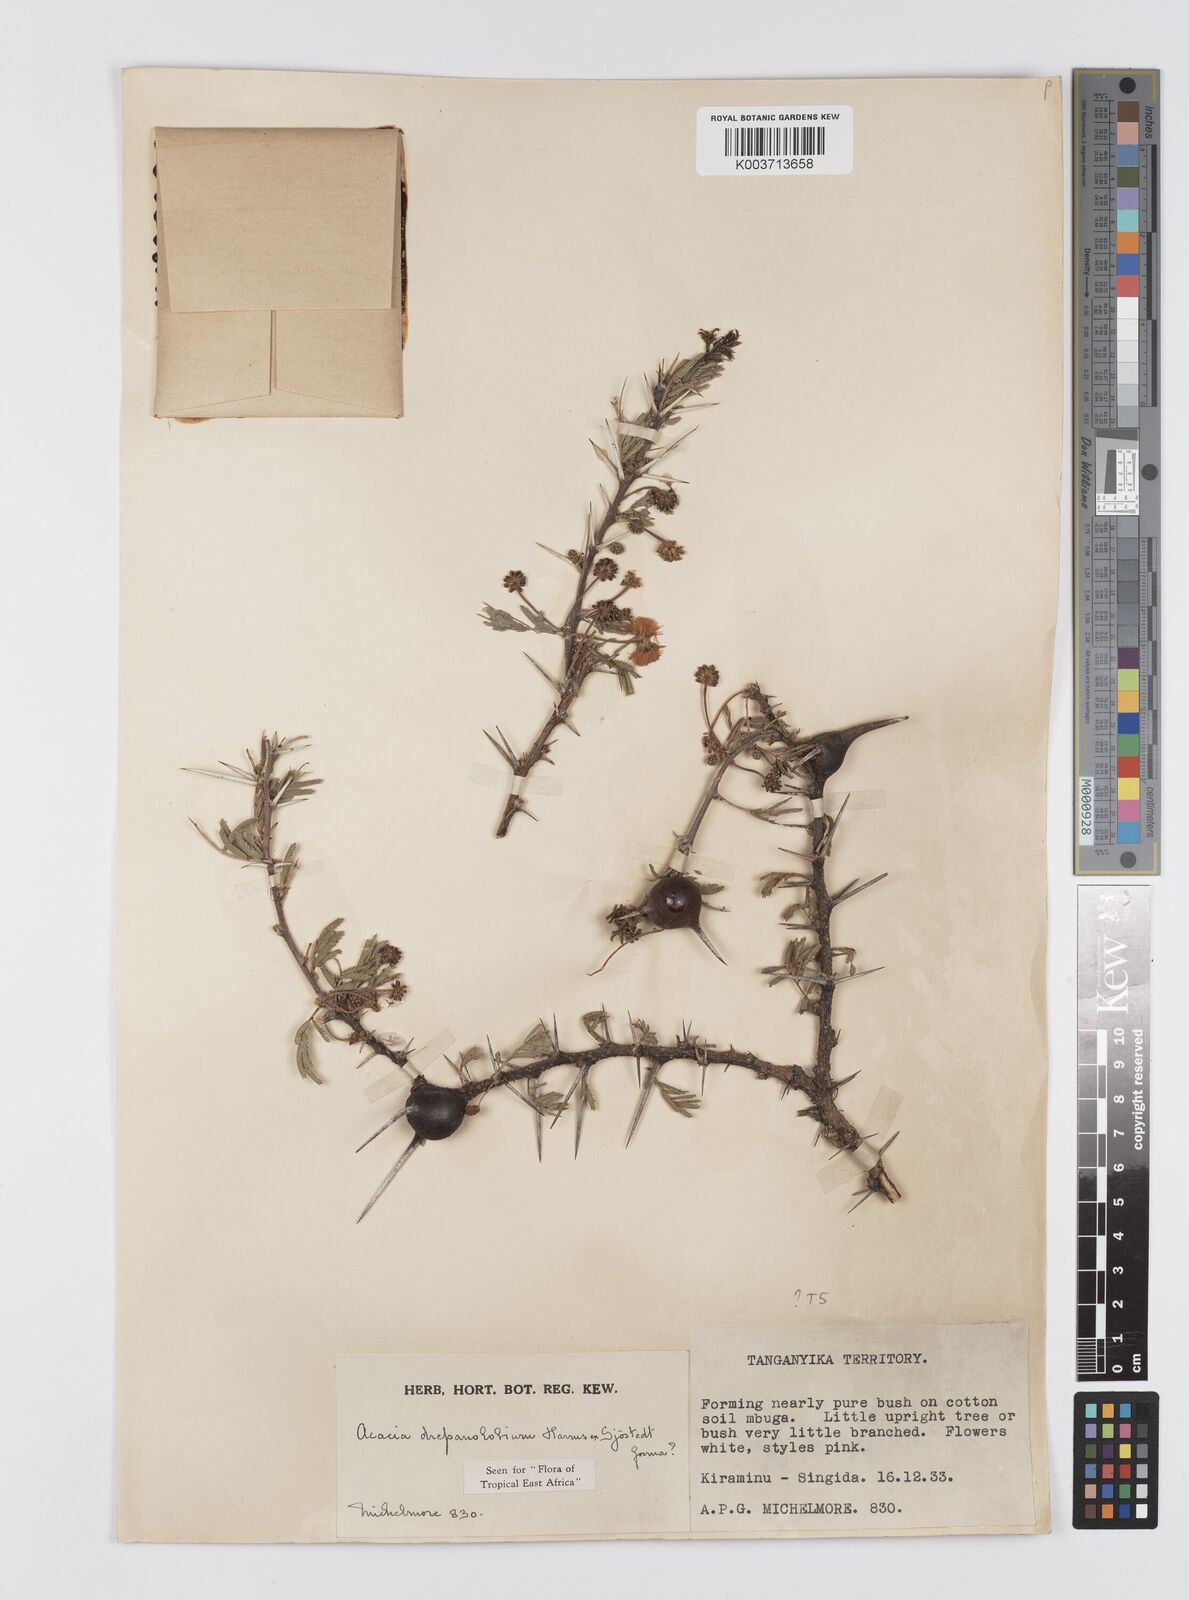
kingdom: Plantae
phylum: Tracheophyta
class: Magnoliopsida
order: Fabales
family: Fabaceae
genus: Vachellia
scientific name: Vachellia drepanolobium
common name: Whistling thorn
